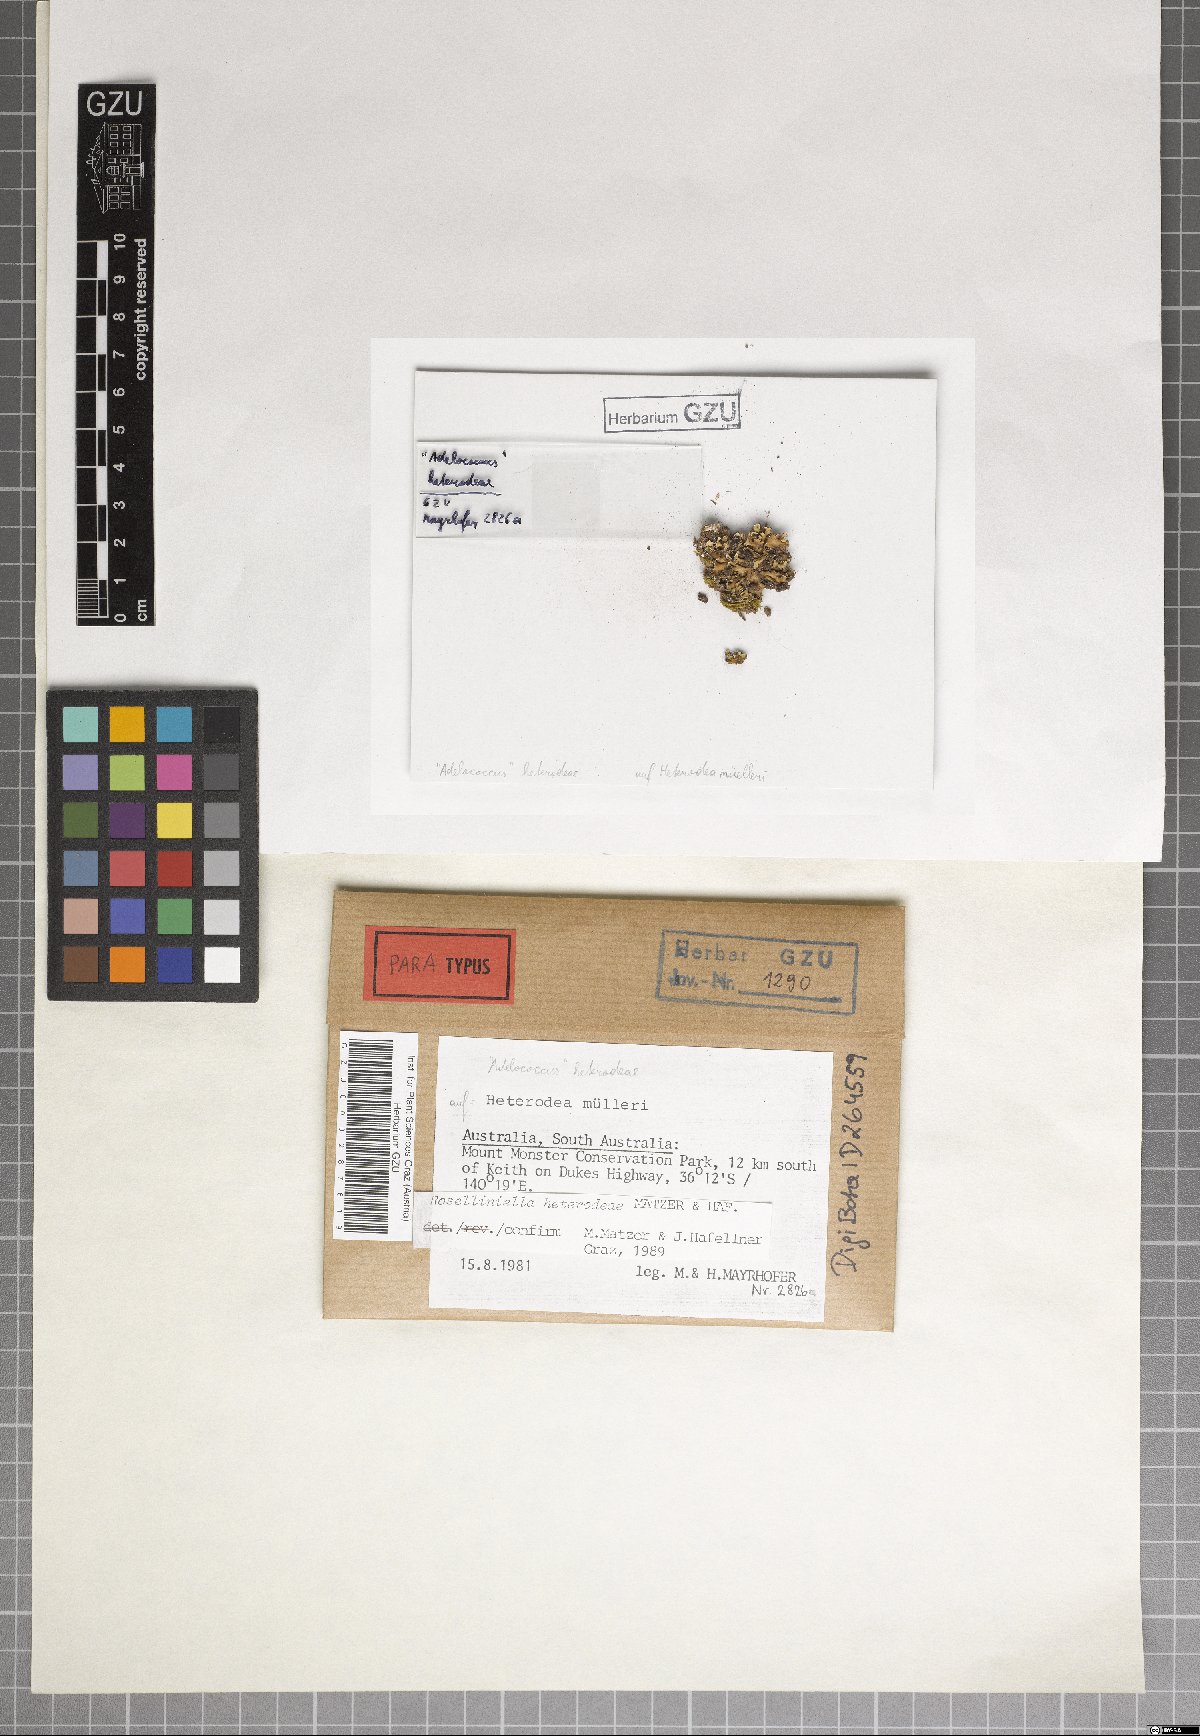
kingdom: Fungi
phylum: Ascomycota
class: Sordariomycetes
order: Sordariales
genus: Roselliniella
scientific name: Roselliniella heterodeae
